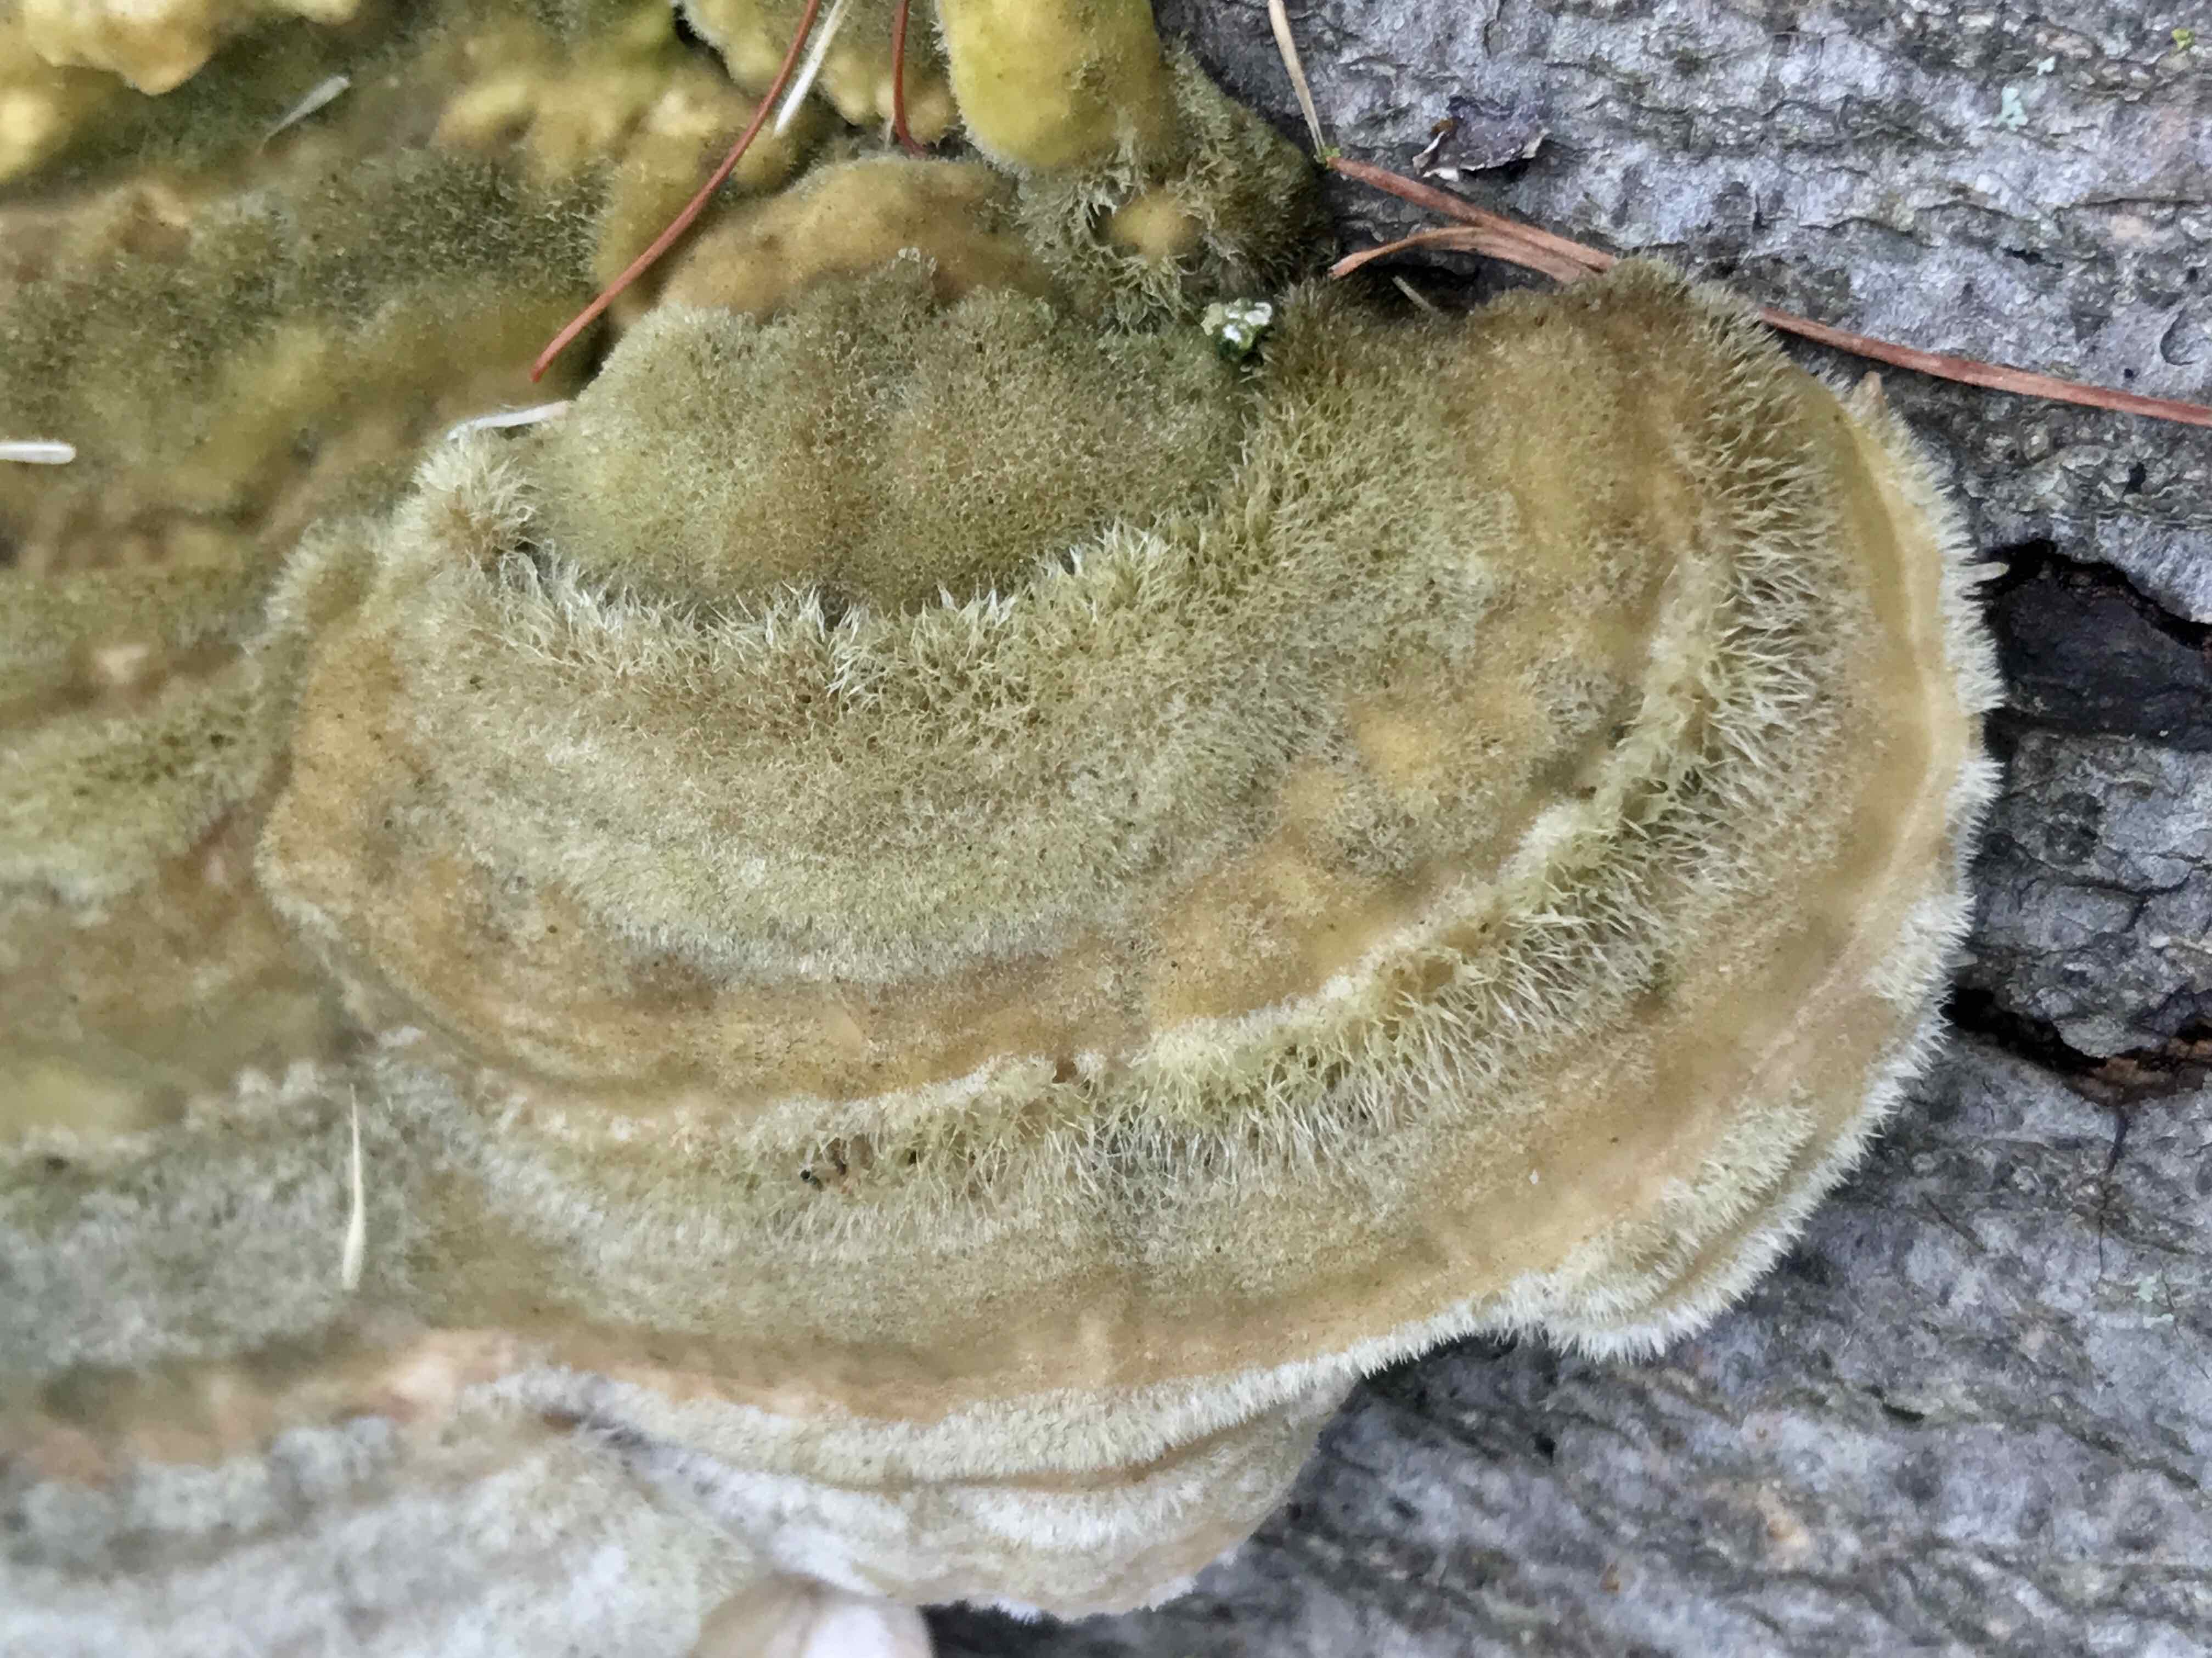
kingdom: Fungi
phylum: Basidiomycota
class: Agaricomycetes
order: Polyporales
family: Polyporaceae
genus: Trametes
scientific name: Trametes hirsuta
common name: håret læderporesvamp
